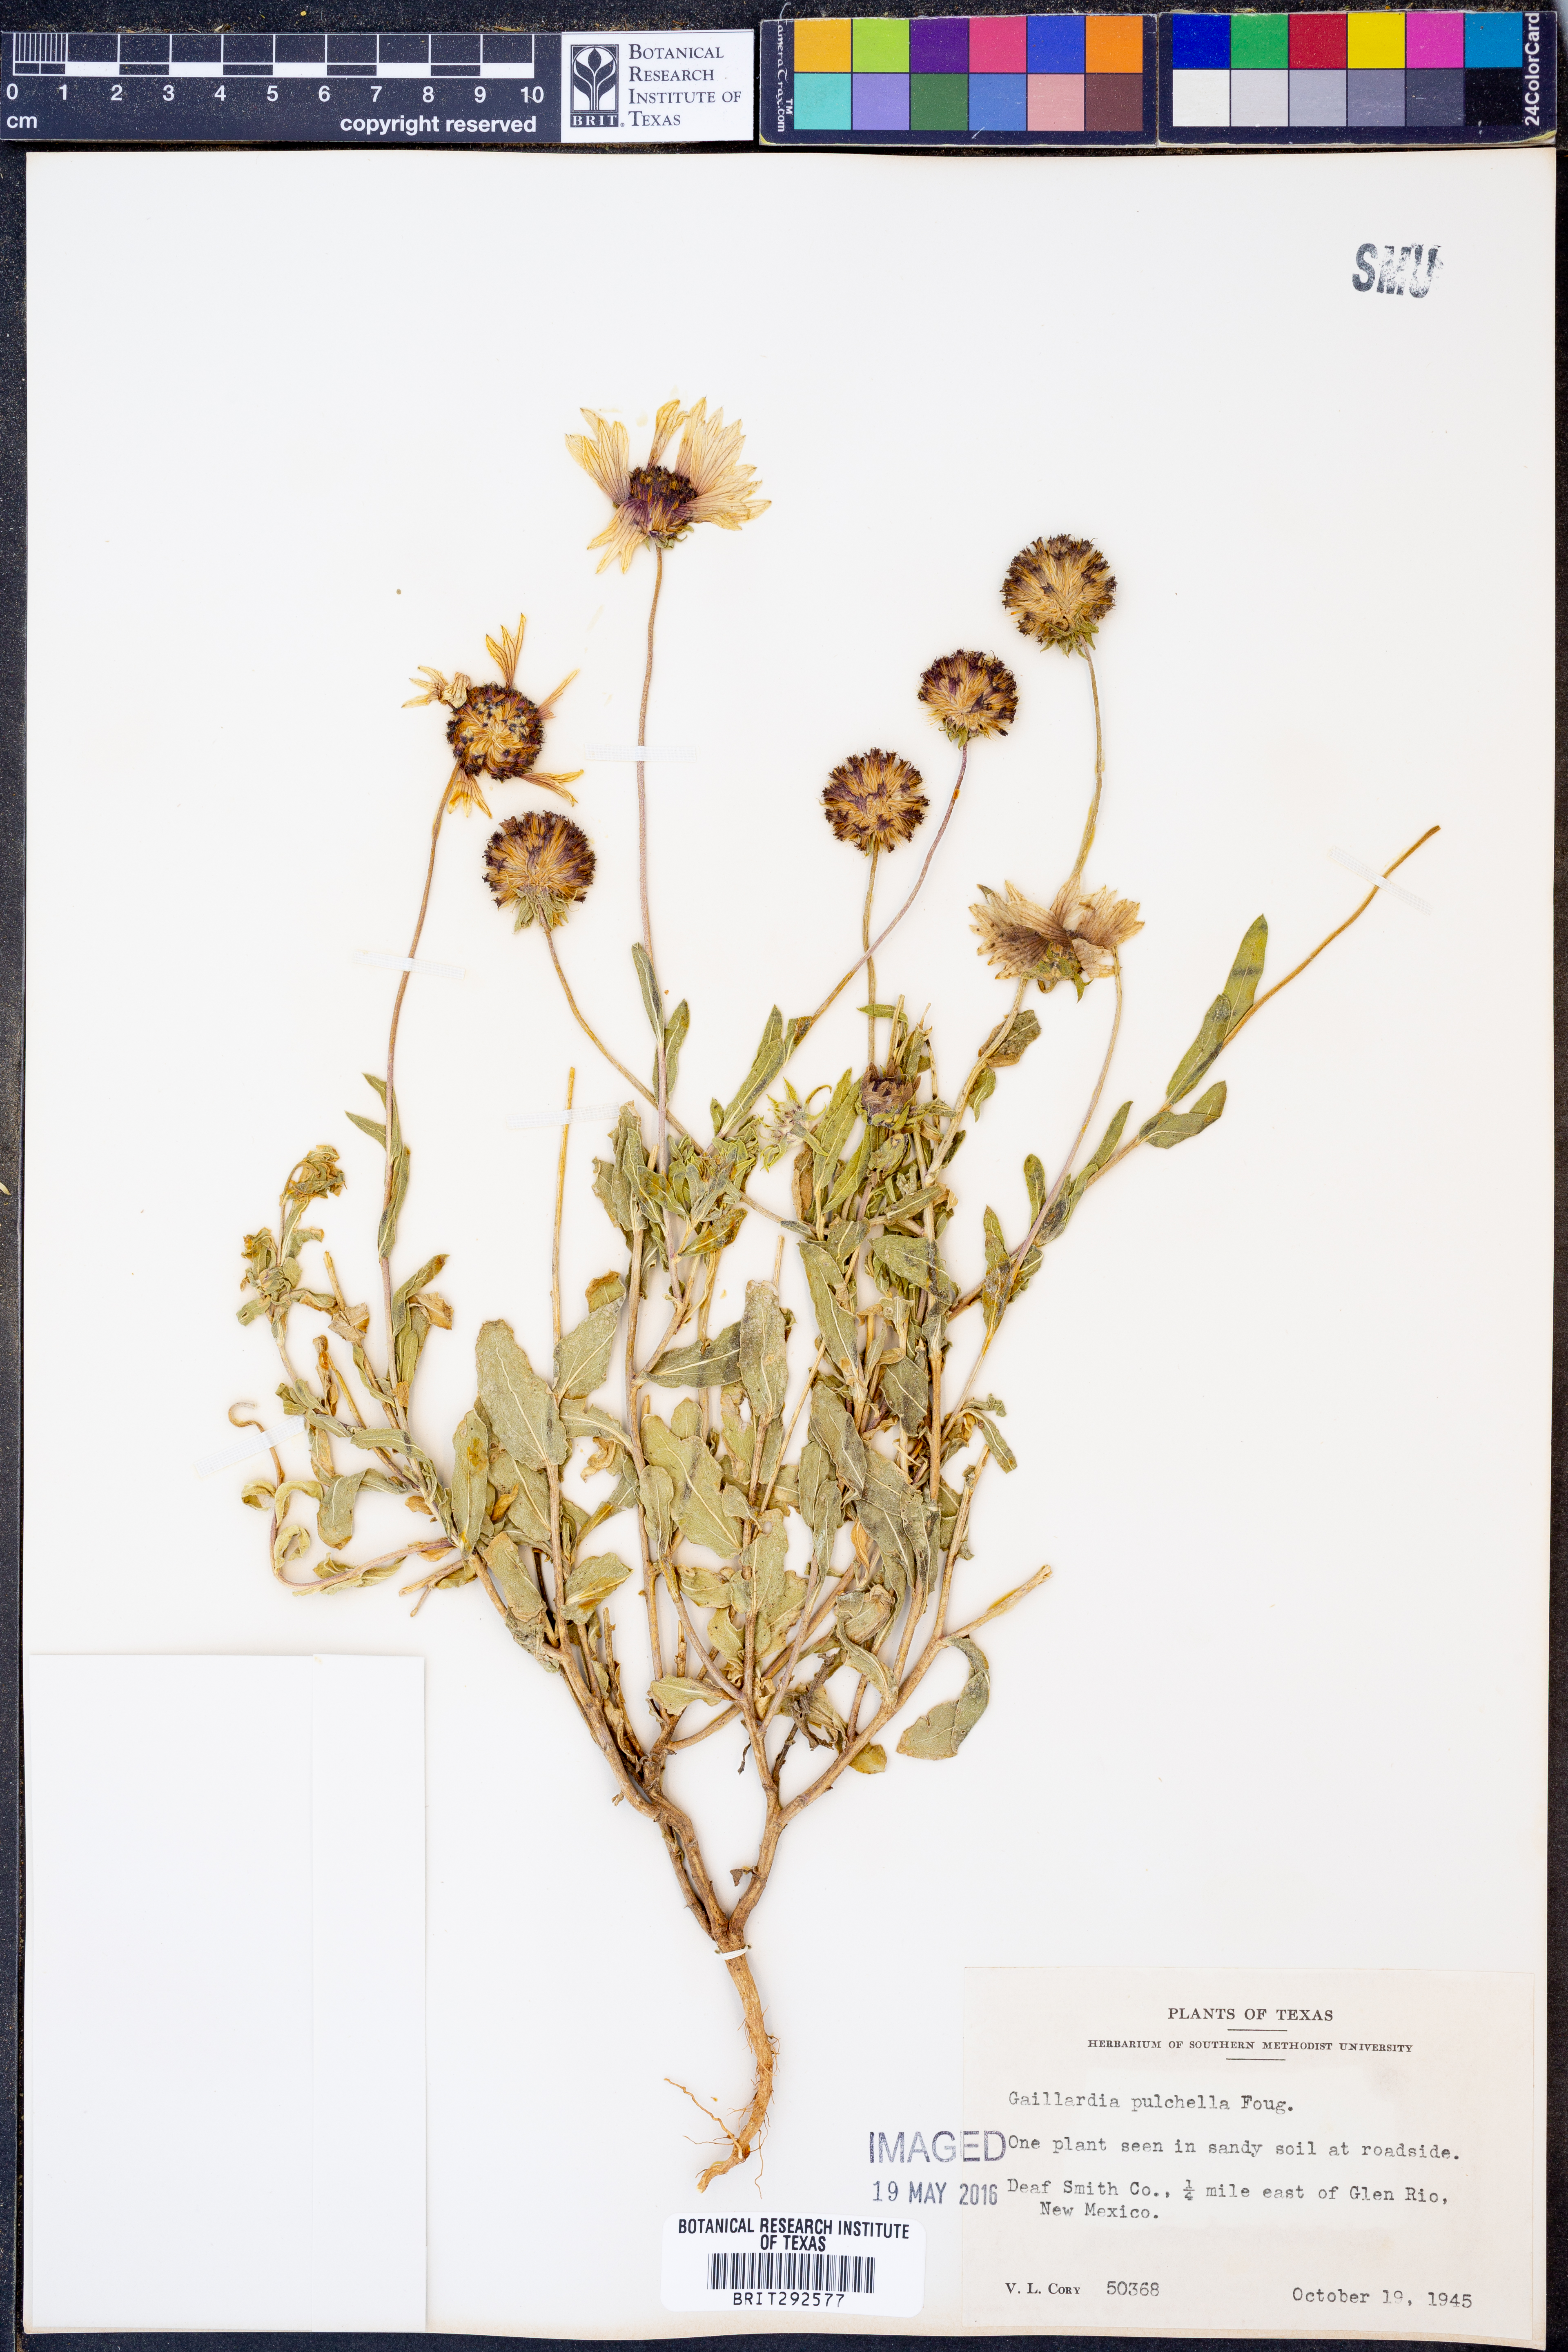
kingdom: Plantae
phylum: Tracheophyta
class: Magnoliopsida
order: Asterales
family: Asteraceae
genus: Gaillardia
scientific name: Gaillardia pulchella
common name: Firewheel
